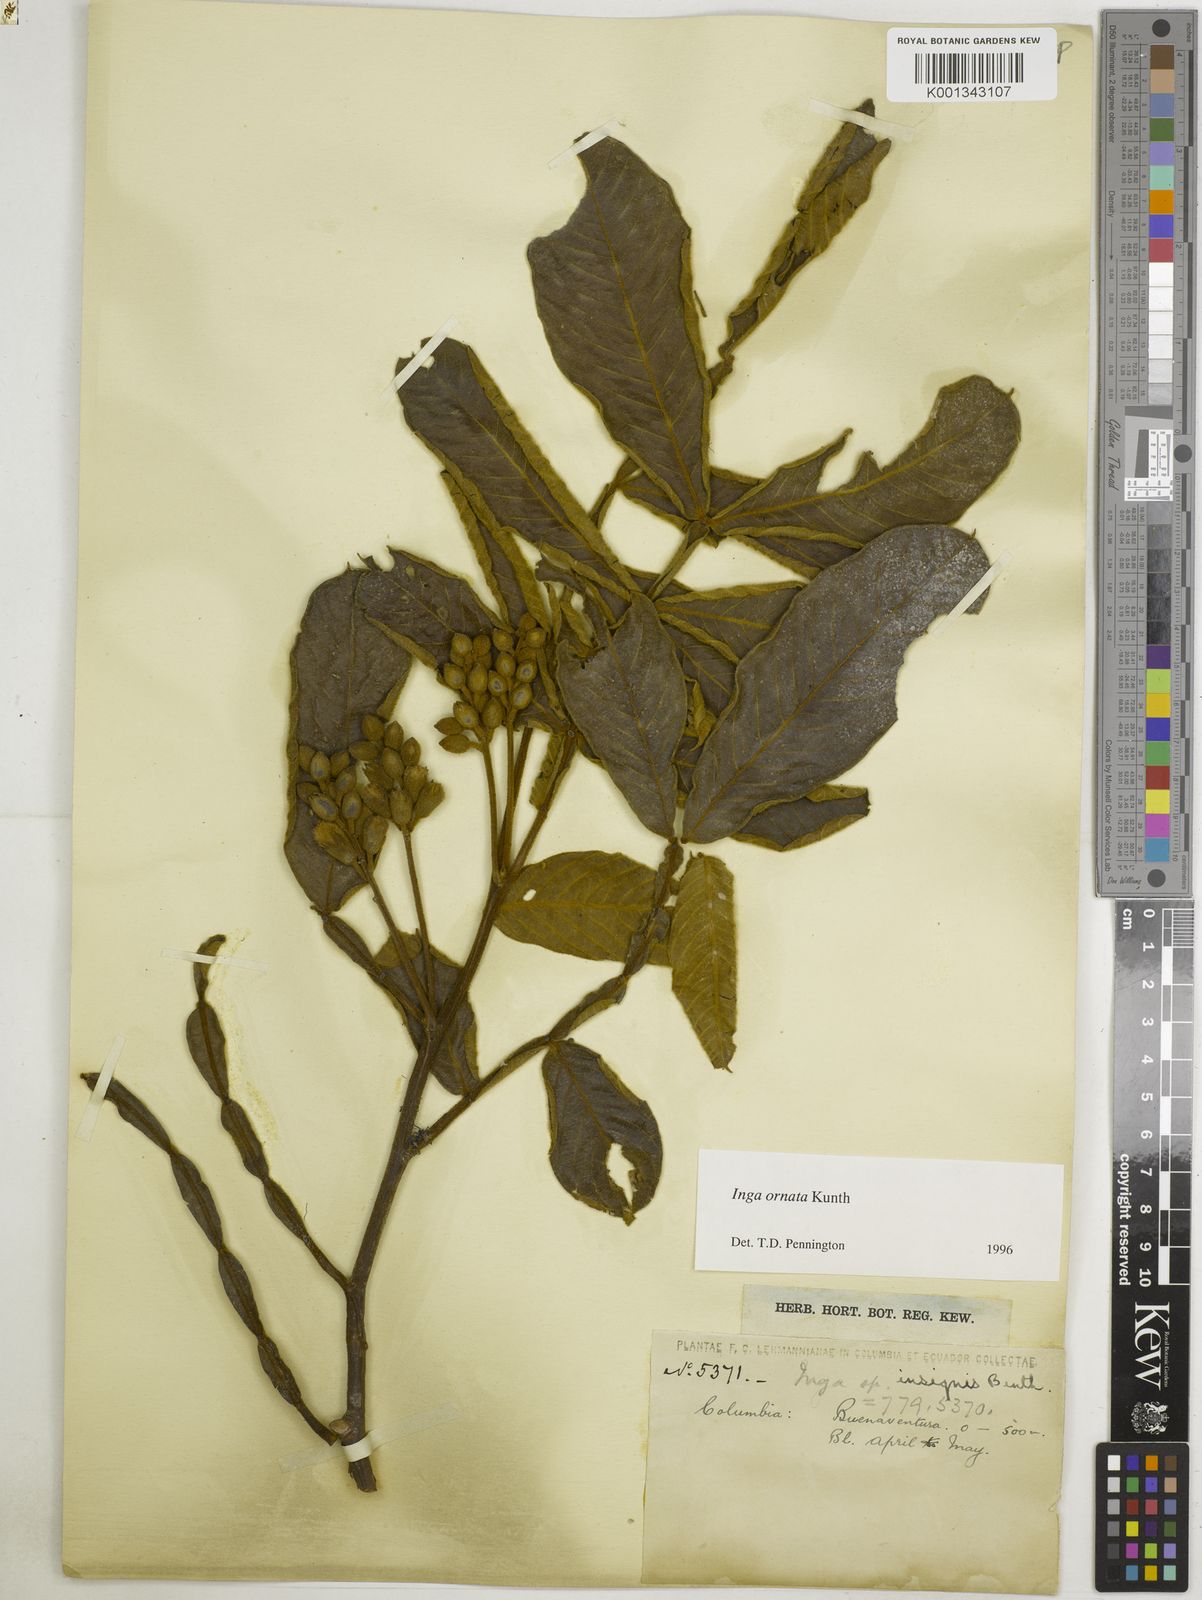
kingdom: Plantae
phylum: Tracheophyta
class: Magnoliopsida
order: Fabales
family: Fabaceae
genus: Inga
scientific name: Inga ornata
